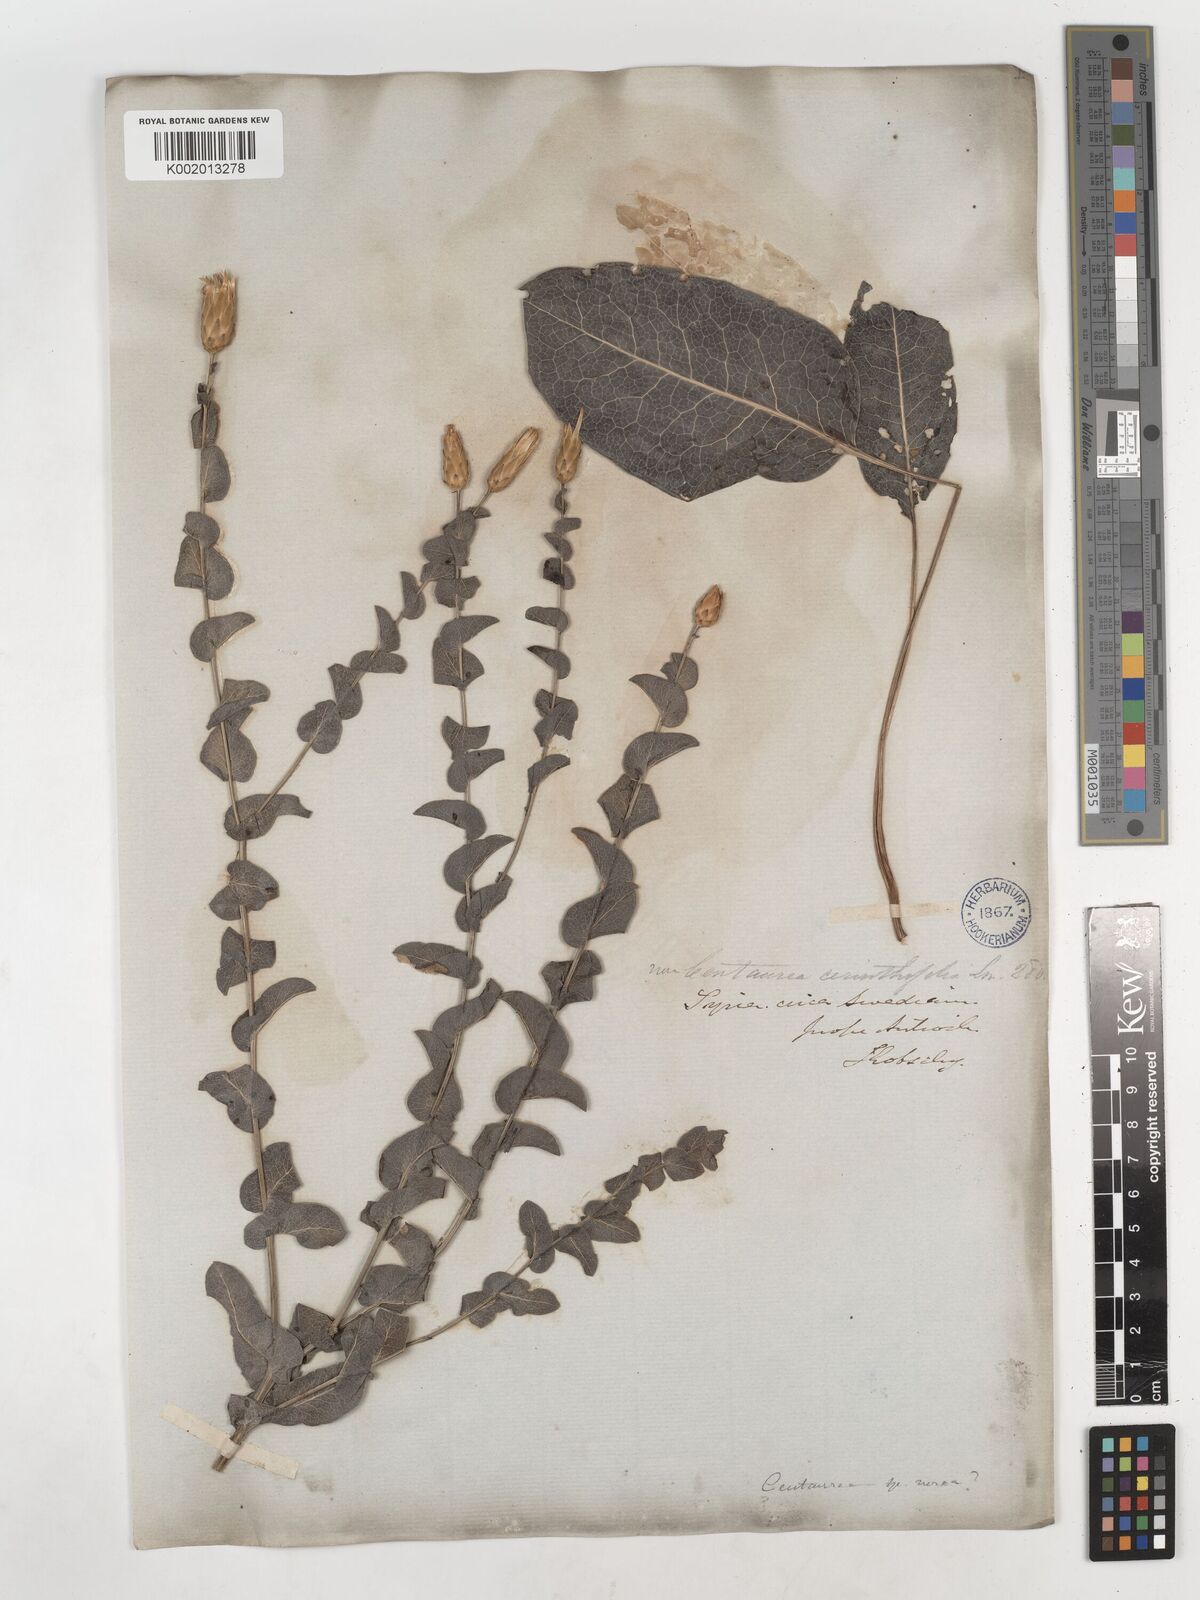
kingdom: Plantae
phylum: Tracheophyta
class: Magnoliopsida
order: Asterales
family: Asteraceae
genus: Klasea
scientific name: Klasea cerinthifolia
